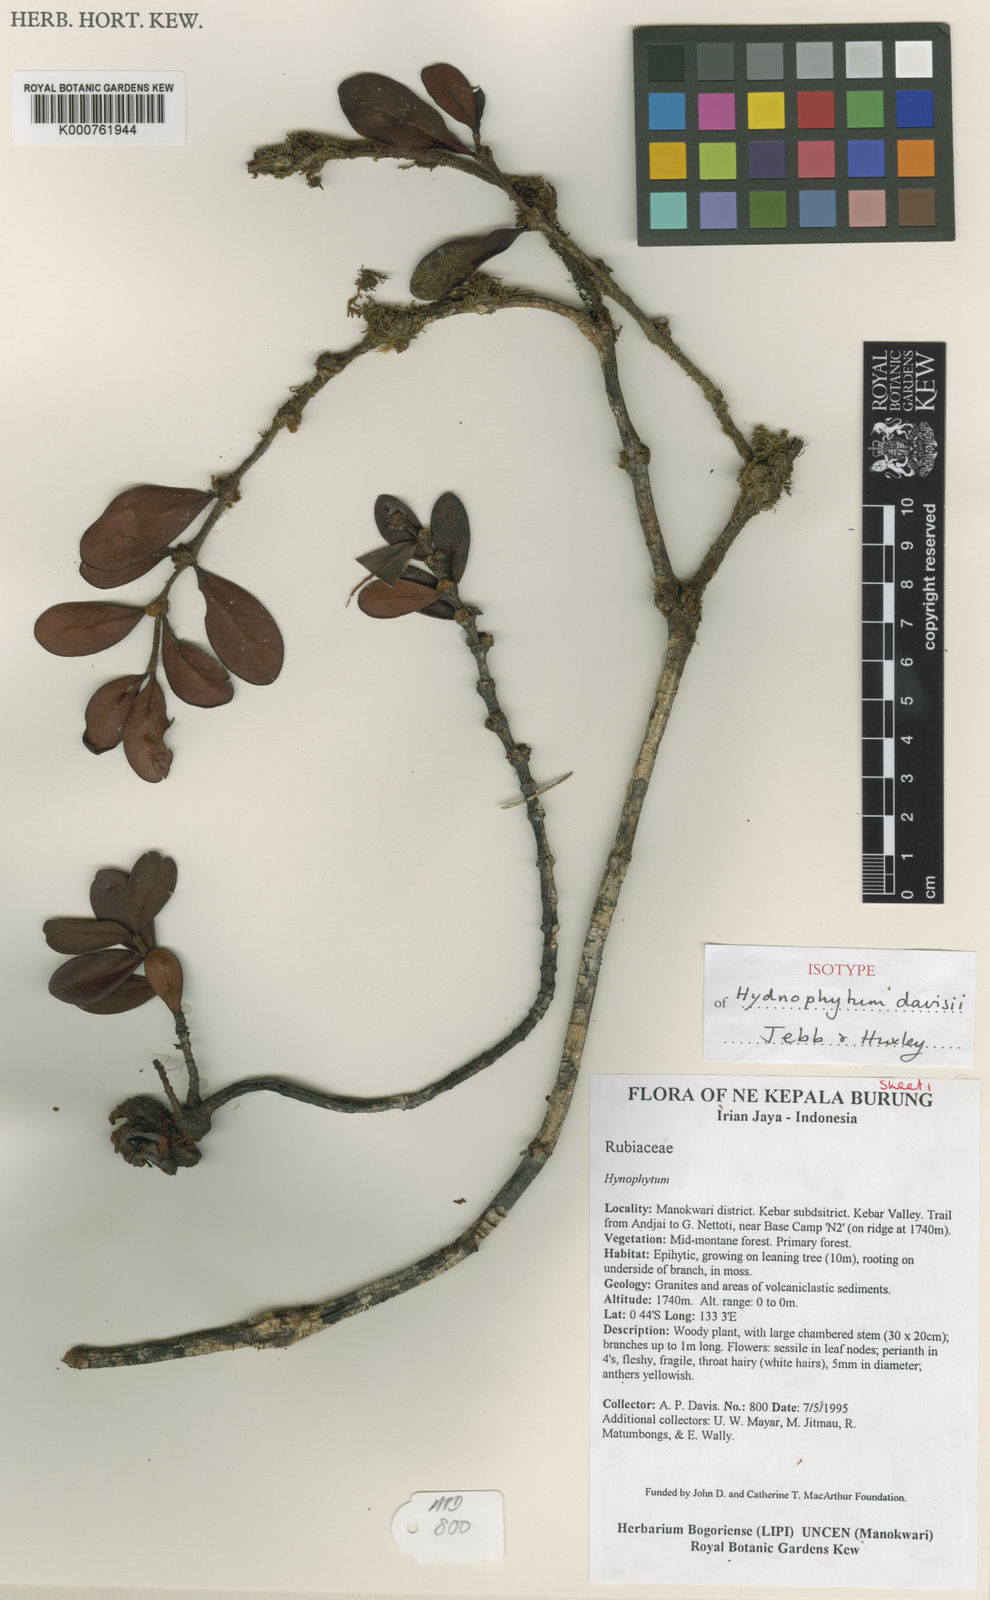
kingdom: Plantae
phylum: Tracheophyta
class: Magnoliopsida
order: Gentianales
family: Rubiaceae
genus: Hydnophytum
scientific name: Hydnophytum
